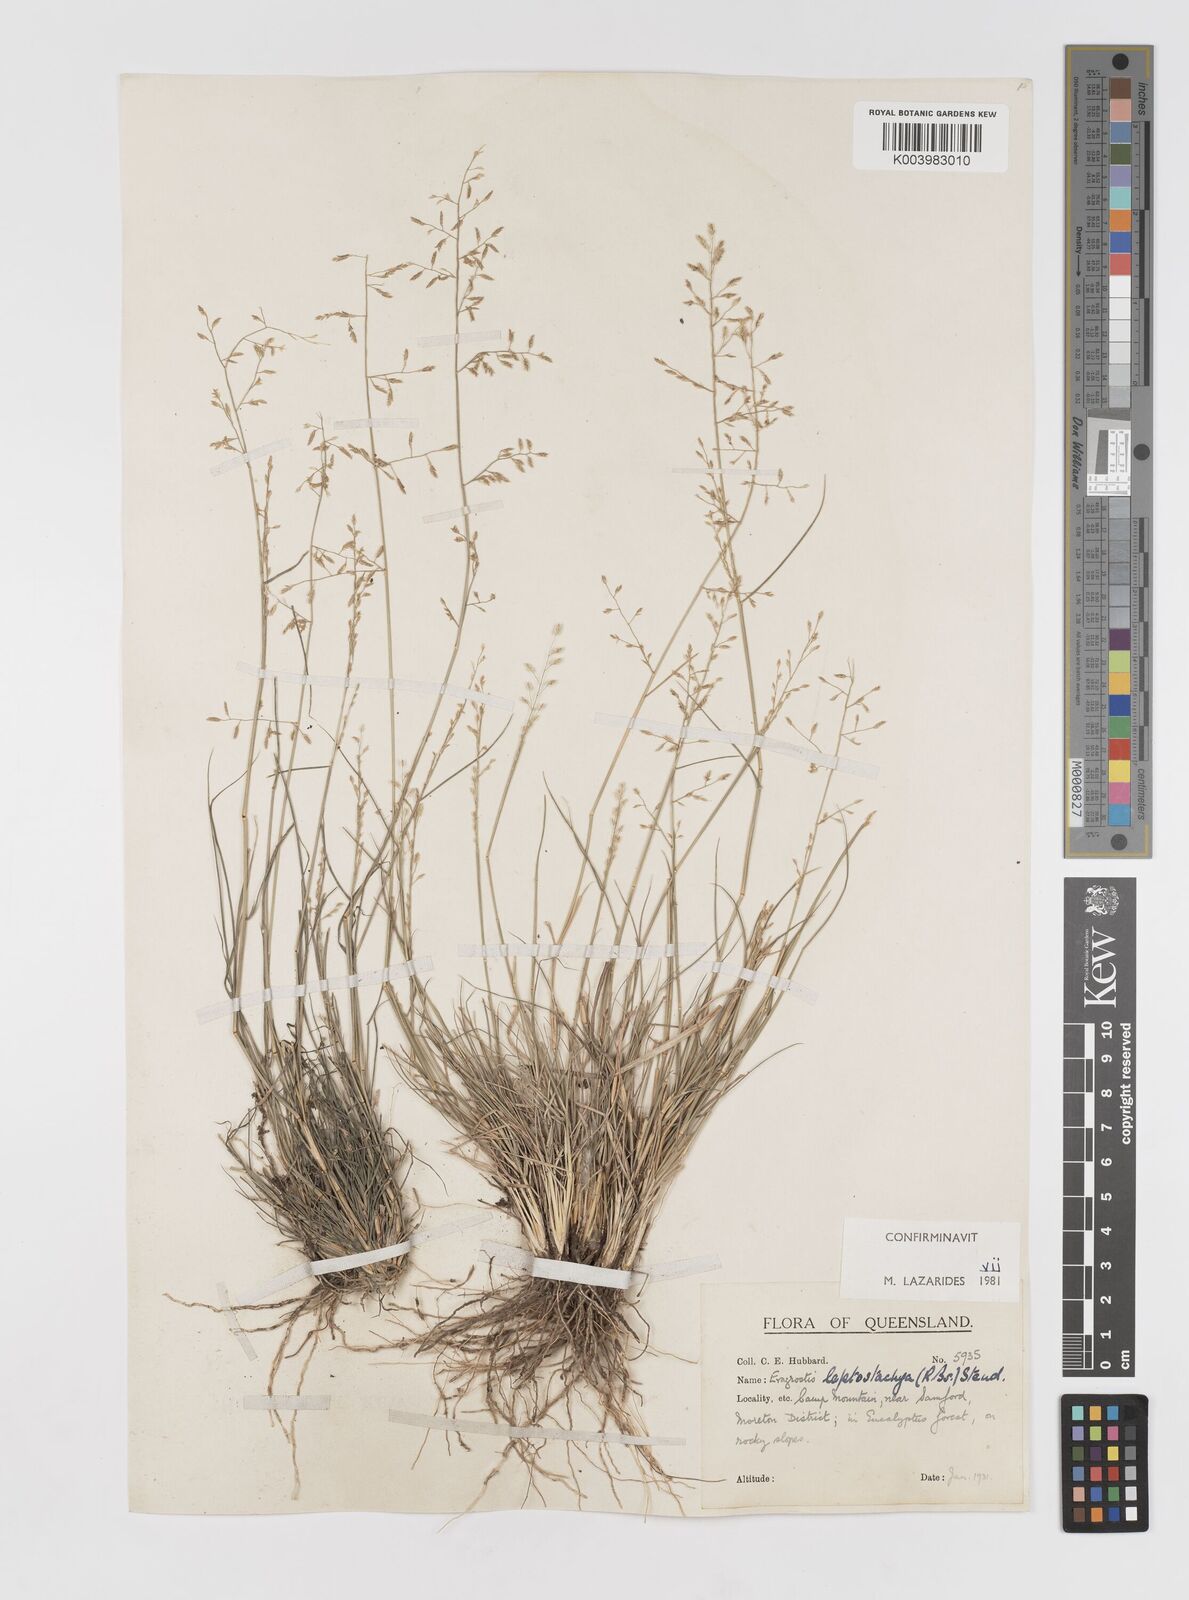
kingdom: Plantae
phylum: Tracheophyta
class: Liliopsida
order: Poales
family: Poaceae
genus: Eragrostis
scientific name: Eragrostis leptostachya
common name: Australian lovegrass
